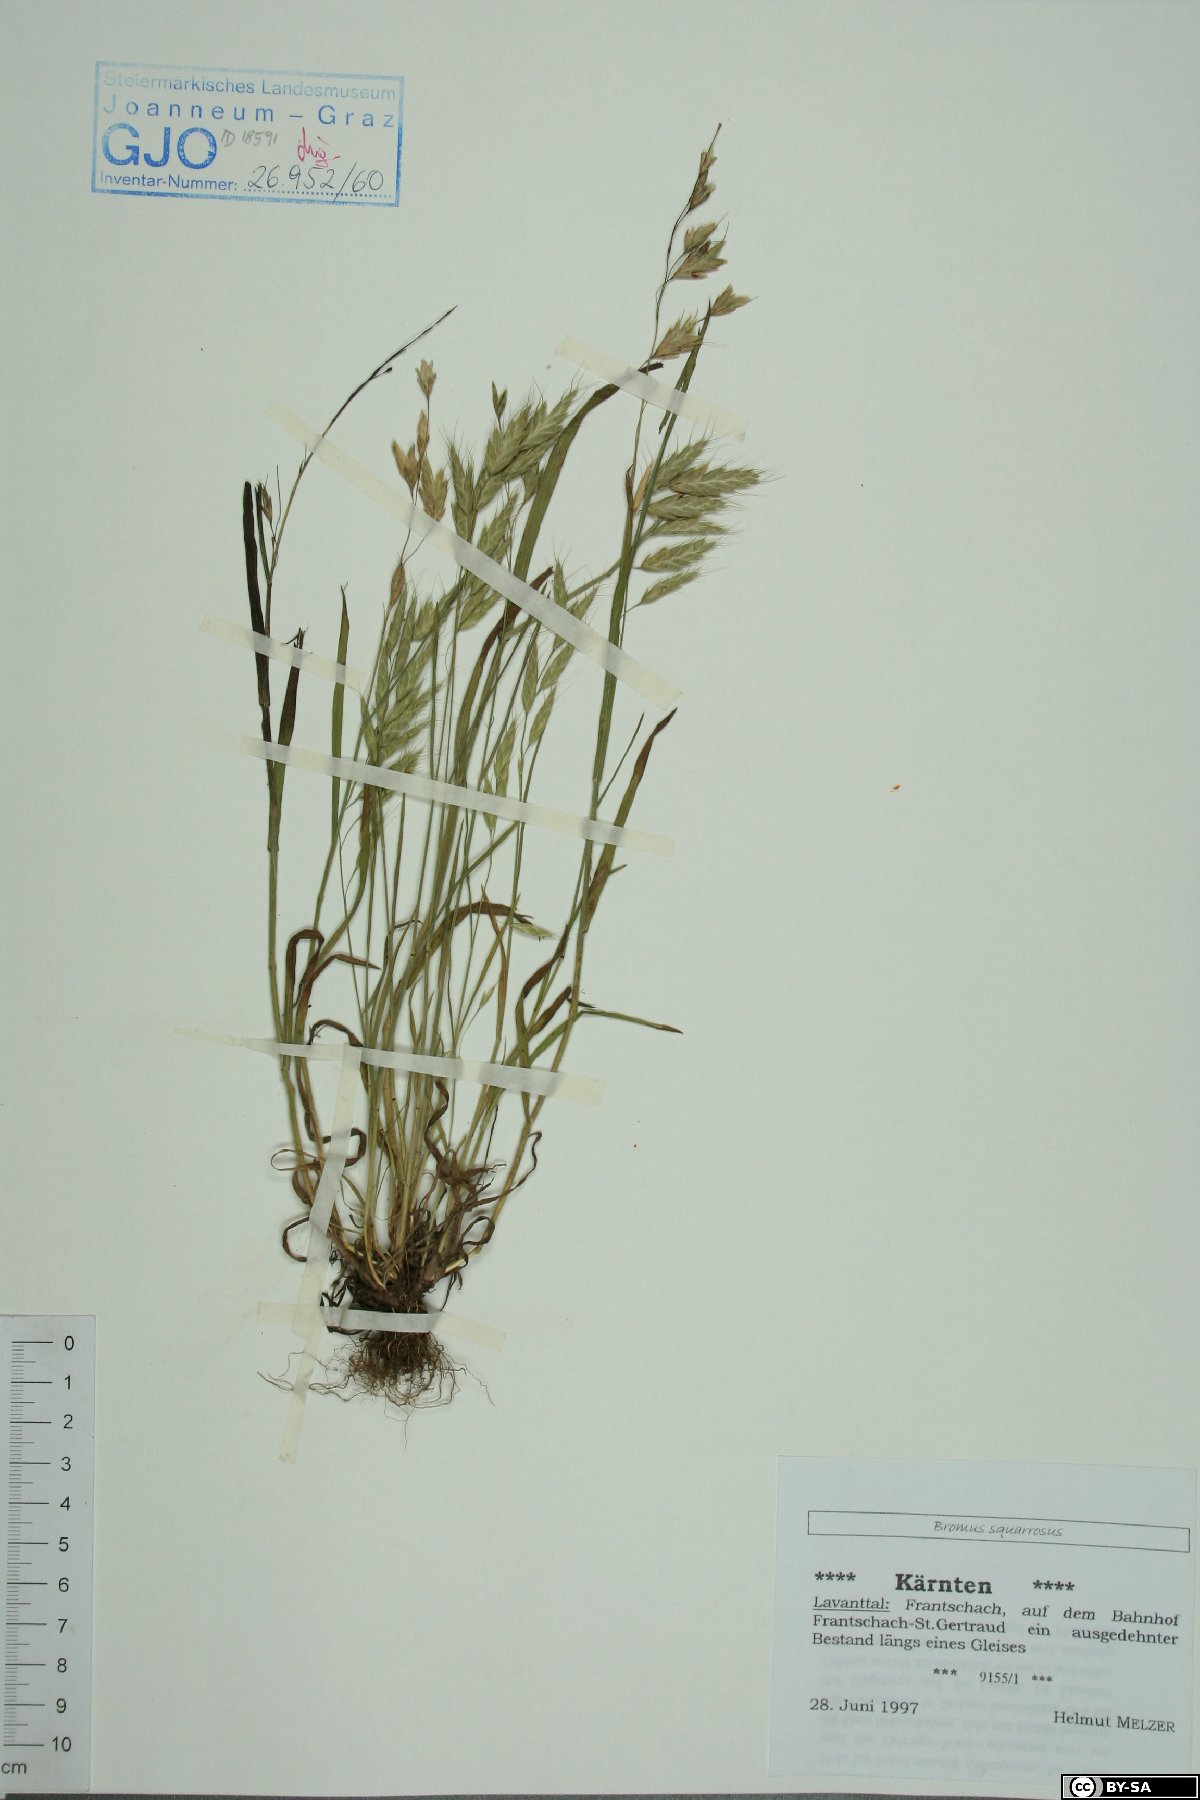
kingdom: Plantae
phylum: Tracheophyta
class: Liliopsida
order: Poales
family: Poaceae
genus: Bromus
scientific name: Bromus squarrosus
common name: Corn brome
